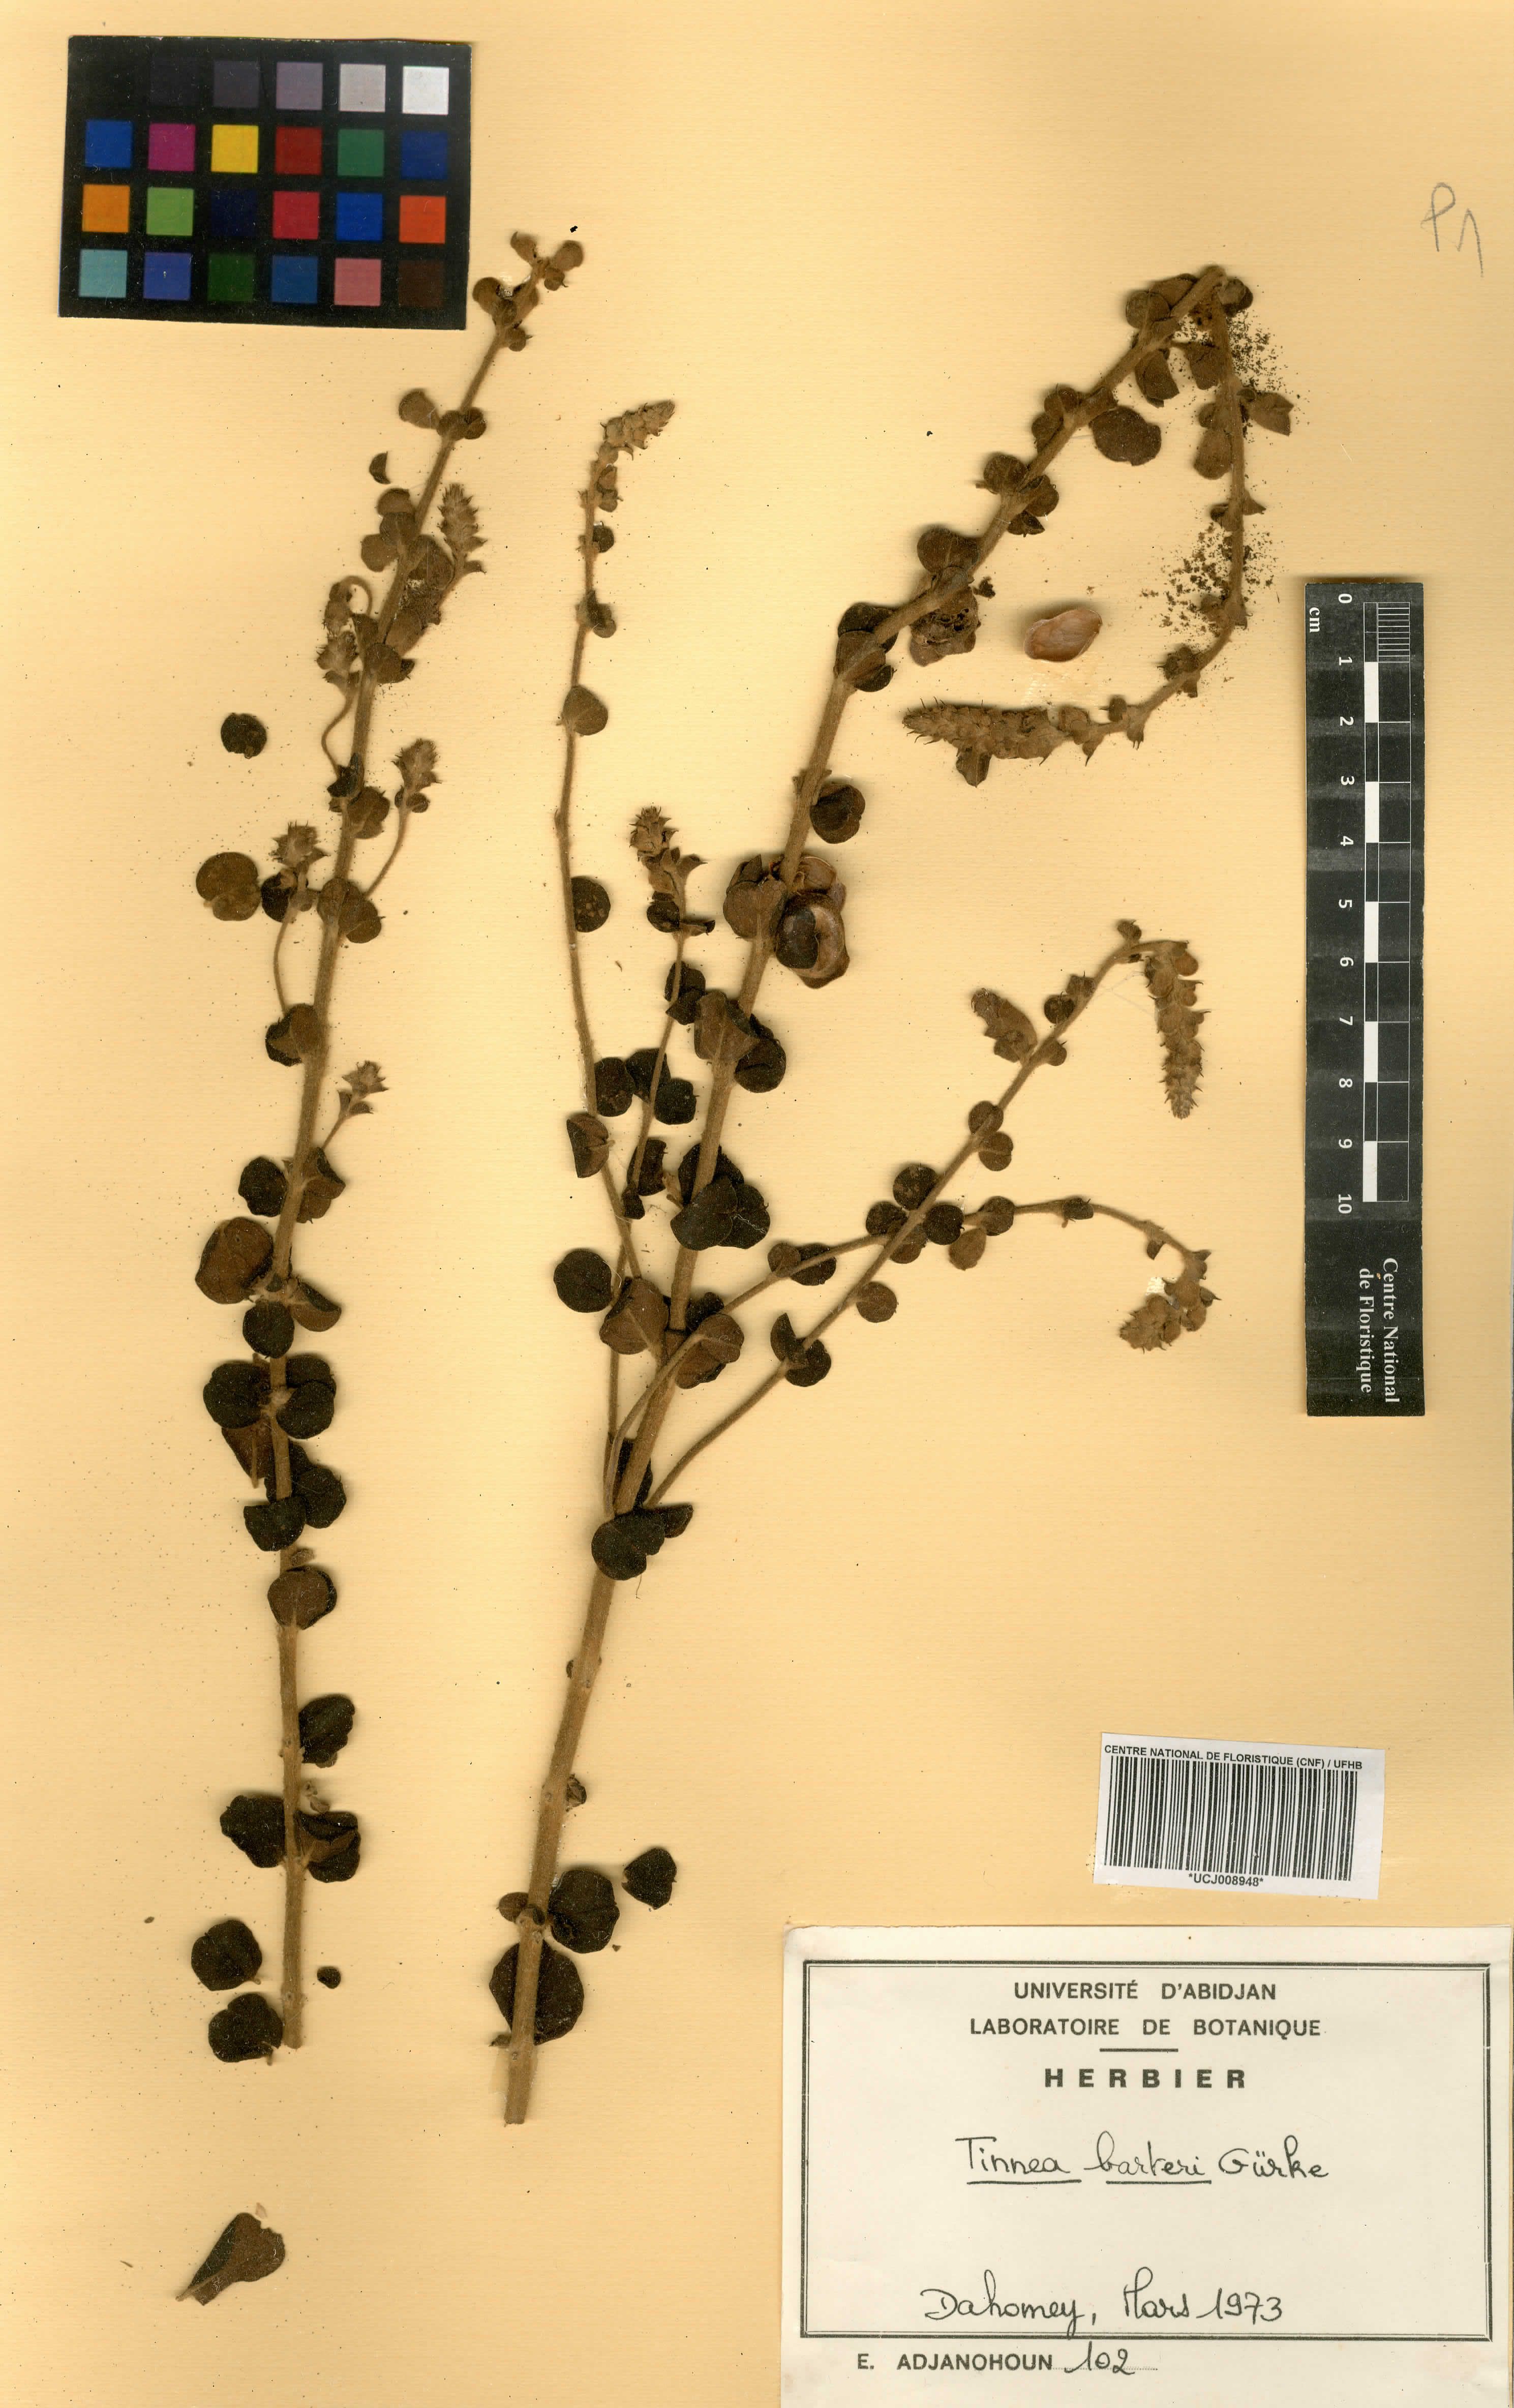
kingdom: Plantae
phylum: Tracheophyta
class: Magnoliopsida
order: Lamiales
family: Lamiaceae
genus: Tinnea
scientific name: Tinnea barteri
